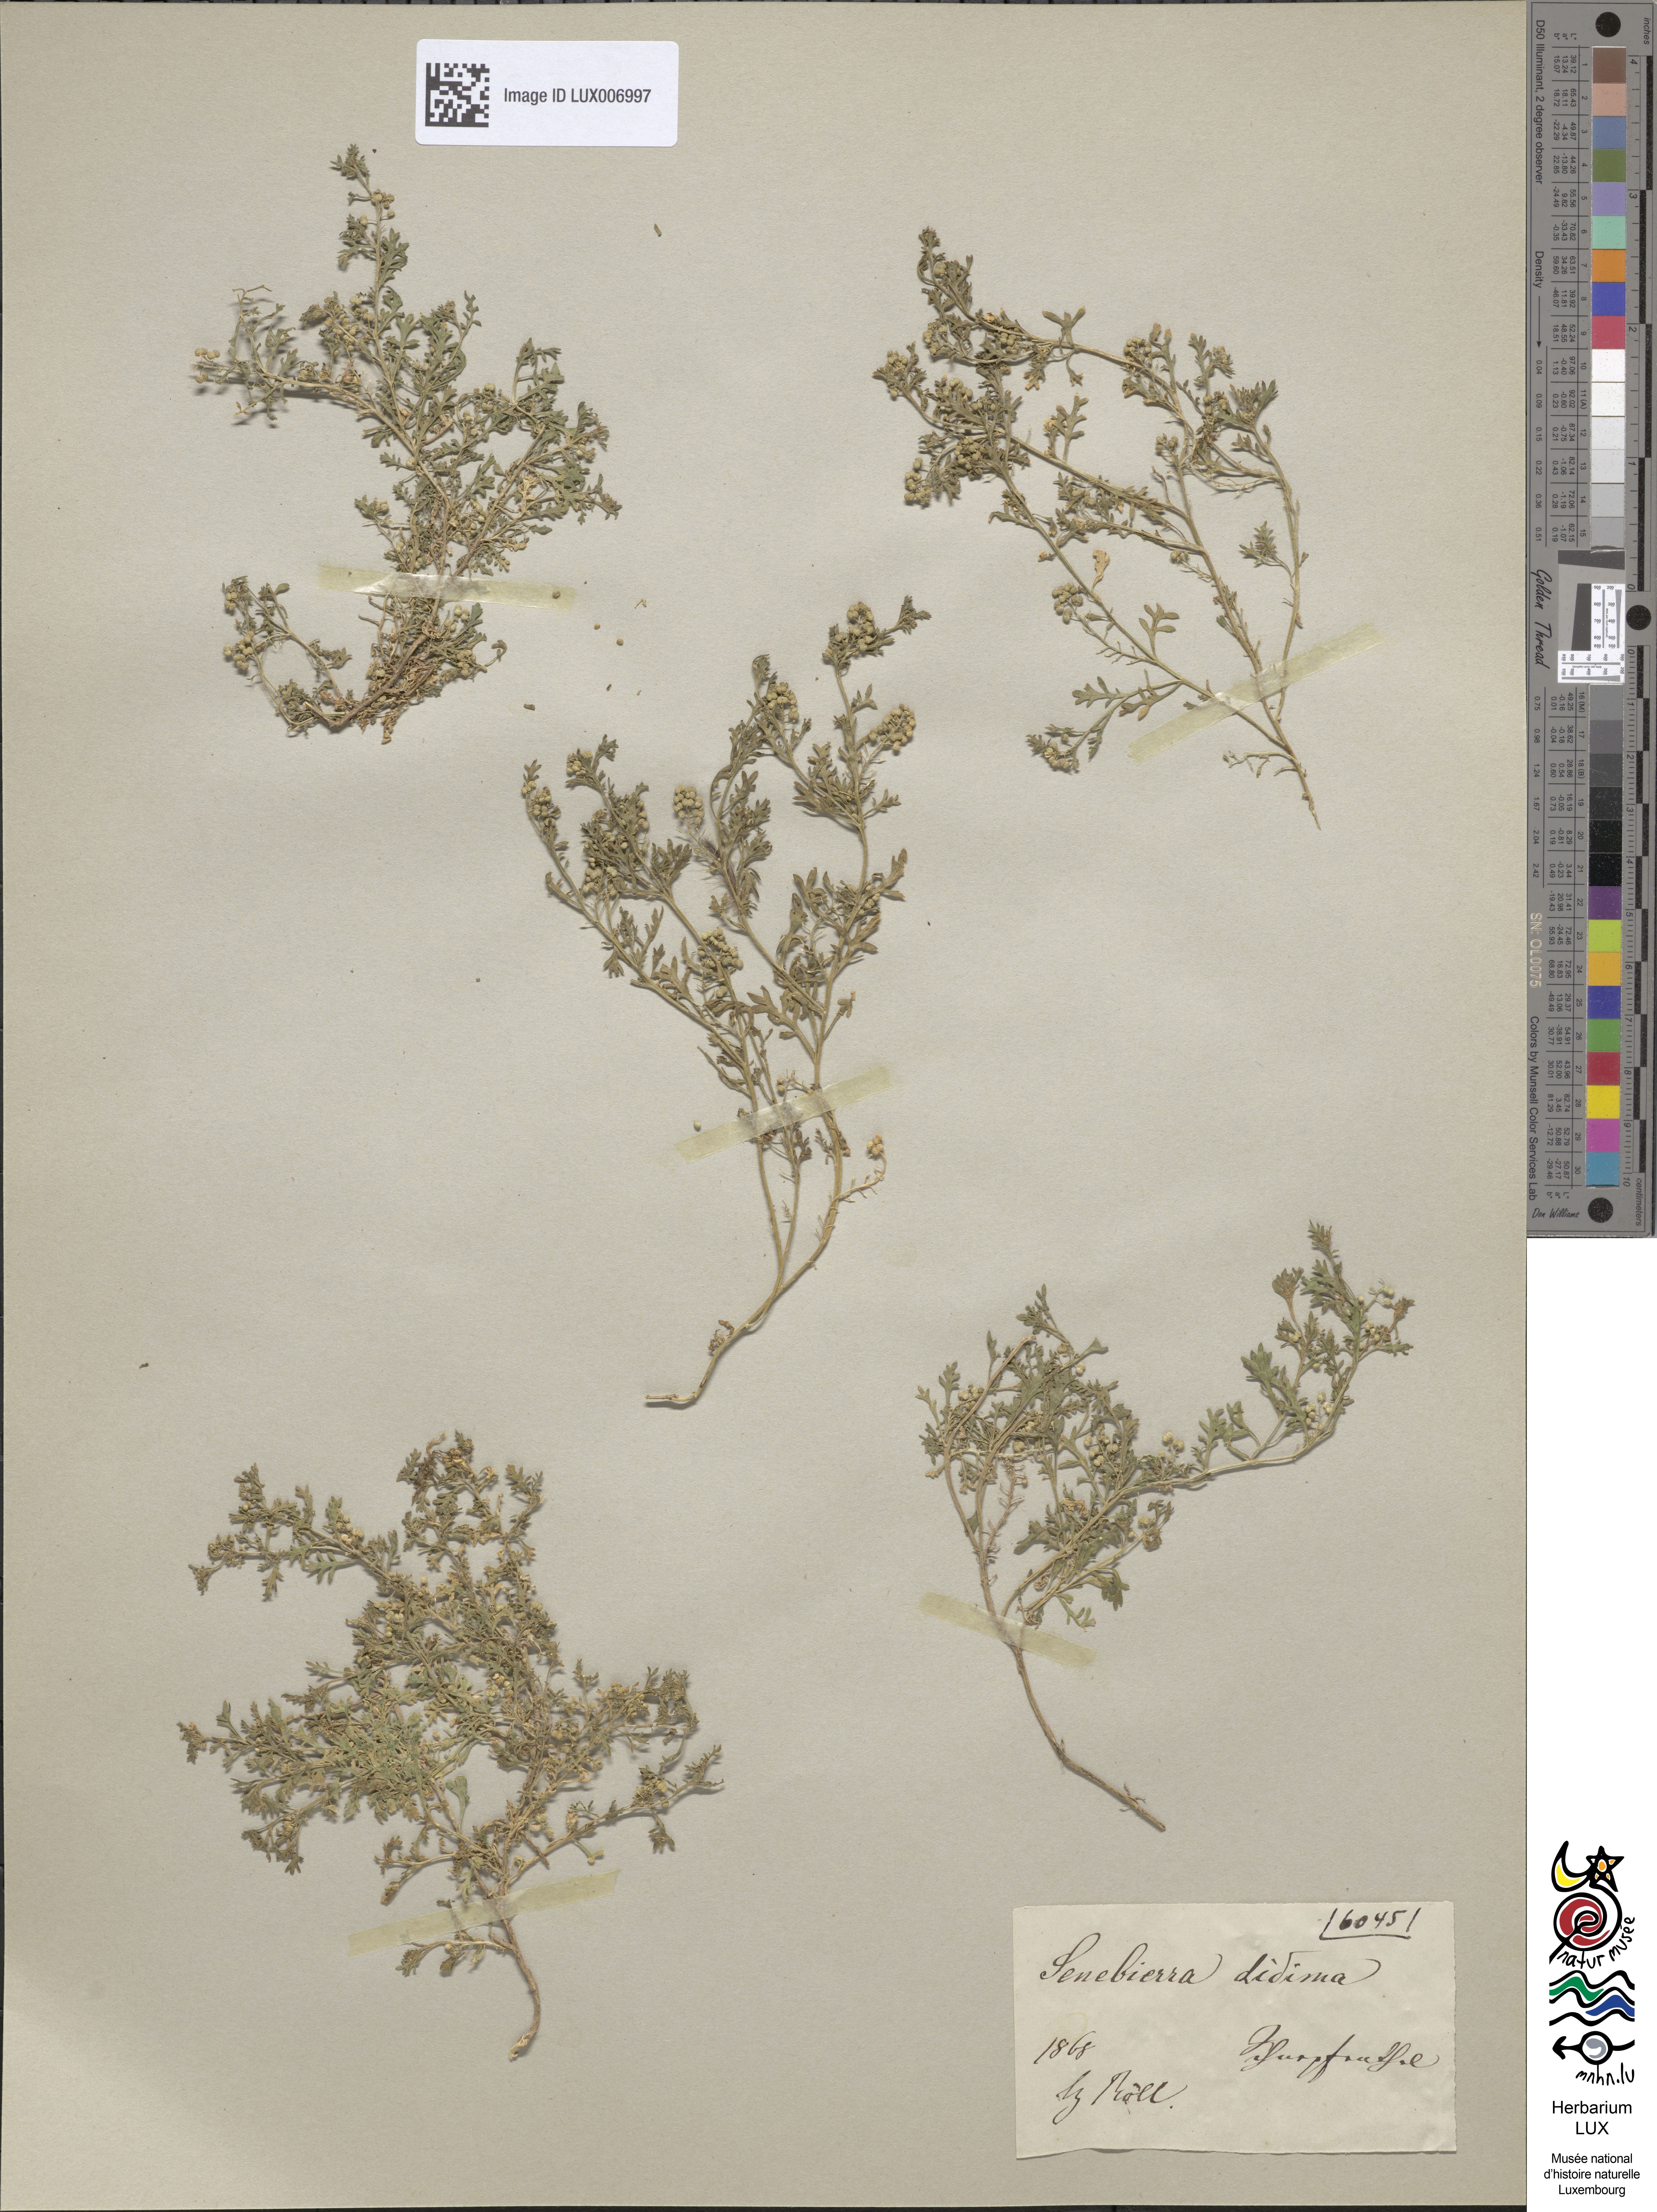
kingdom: Plantae
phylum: Tracheophyta
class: Magnoliopsida
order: Brassicales
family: Brassicaceae
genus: Lepidium
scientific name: Lepidium didymum
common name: Lesser swinecress
